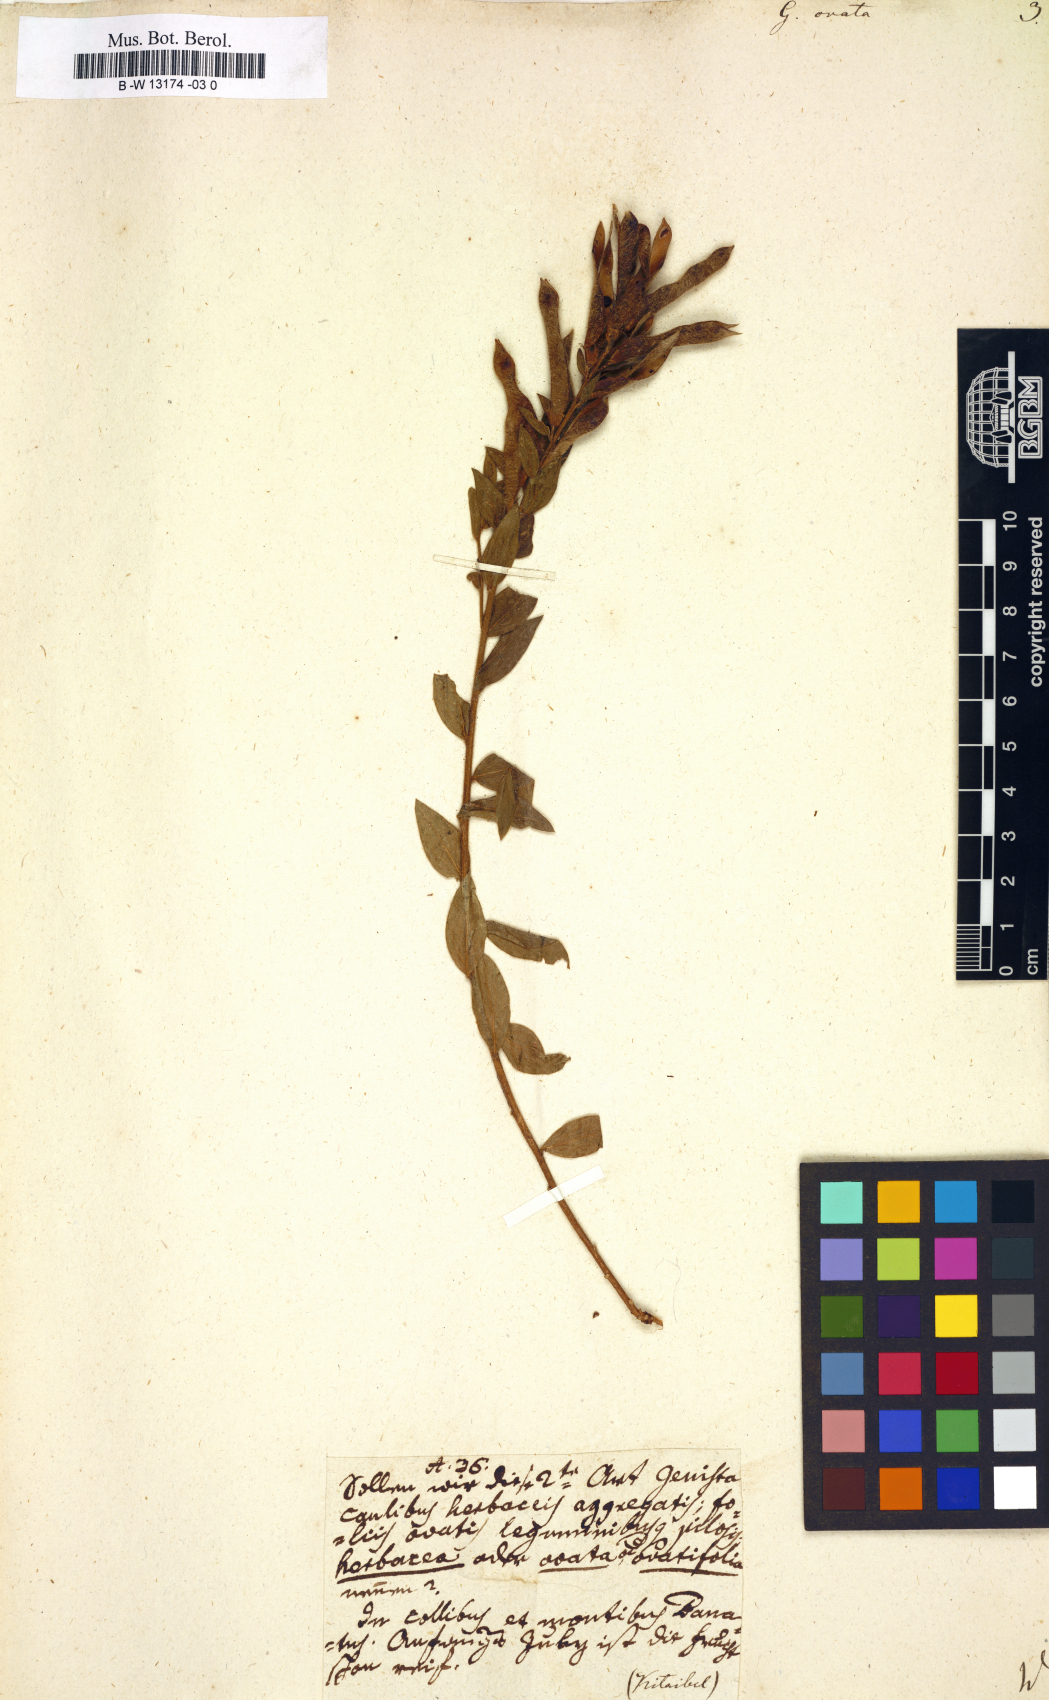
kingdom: Plantae
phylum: Tracheophyta
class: Magnoliopsida
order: Fabales
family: Fabaceae
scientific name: Fabaceae
